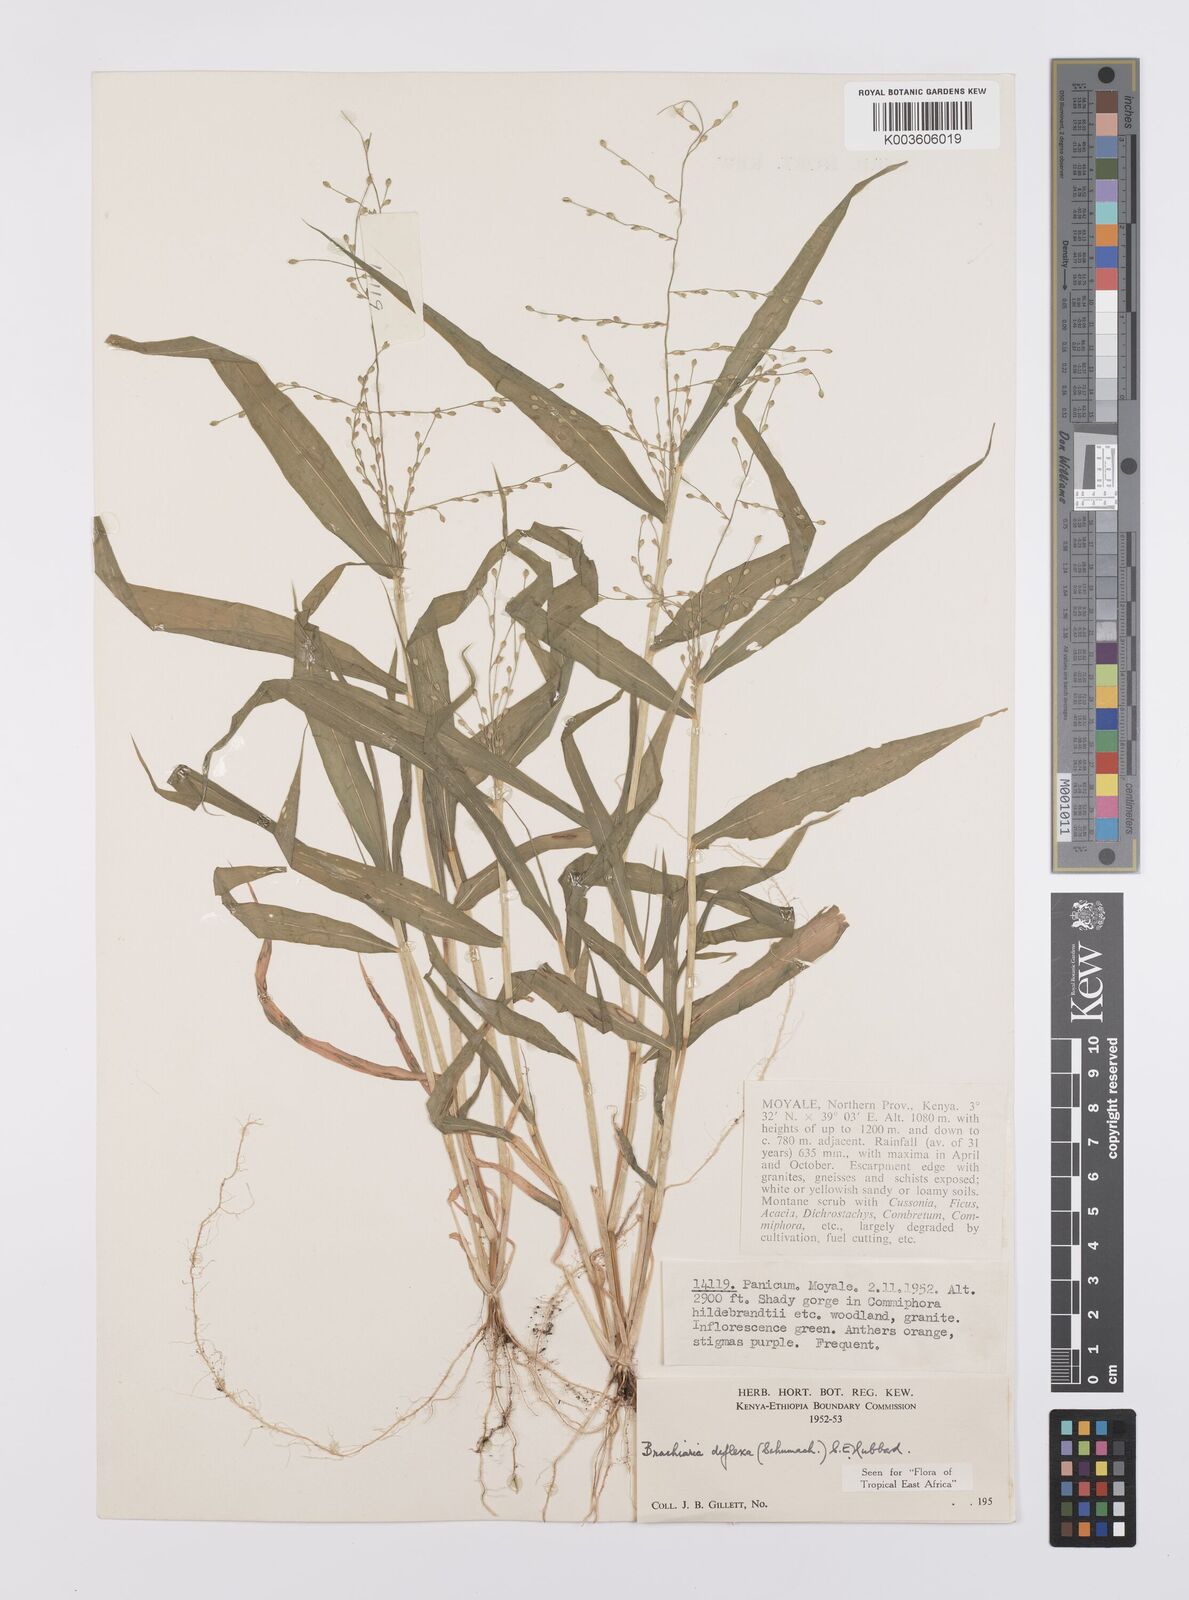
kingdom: Plantae
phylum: Tracheophyta
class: Liliopsida
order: Poales
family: Poaceae
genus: Urochloa
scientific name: Urochloa deflexa
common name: Guinea millet
